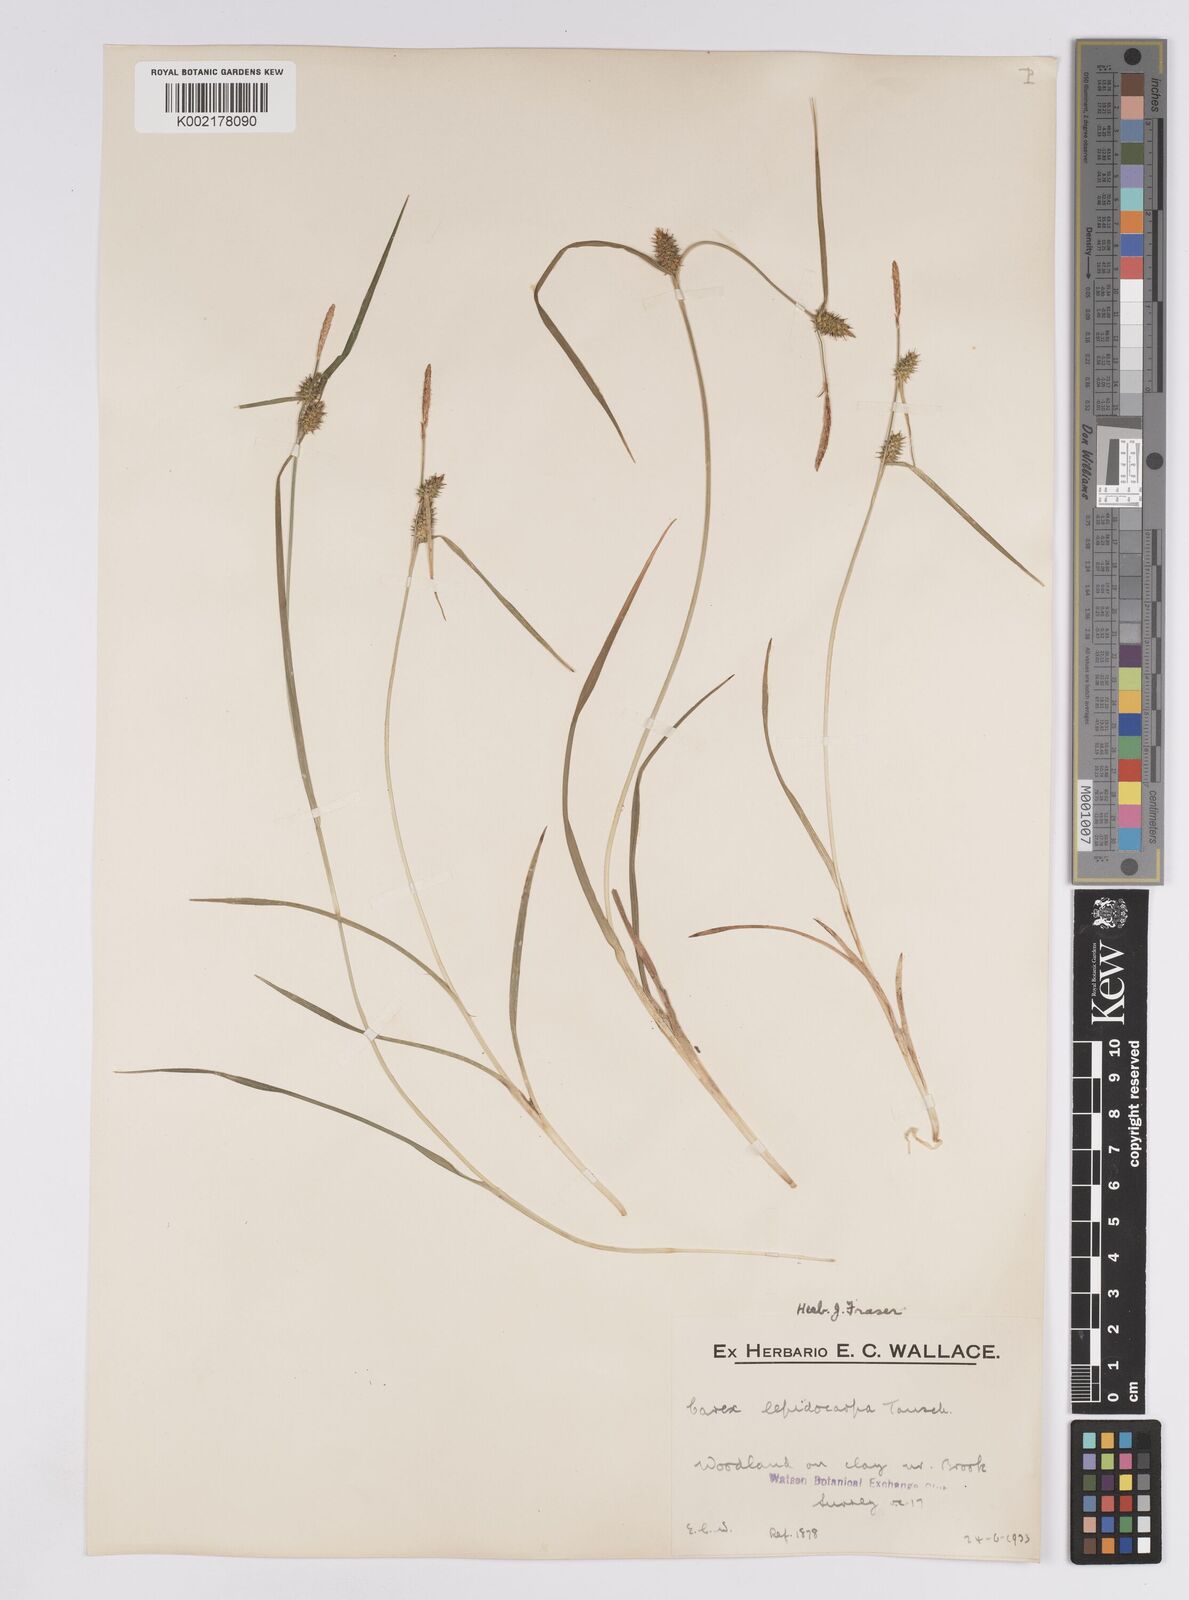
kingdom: Plantae
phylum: Tracheophyta
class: Liliopsida
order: Poales
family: Cyperaceae
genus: Carex
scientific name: Carex demissa
